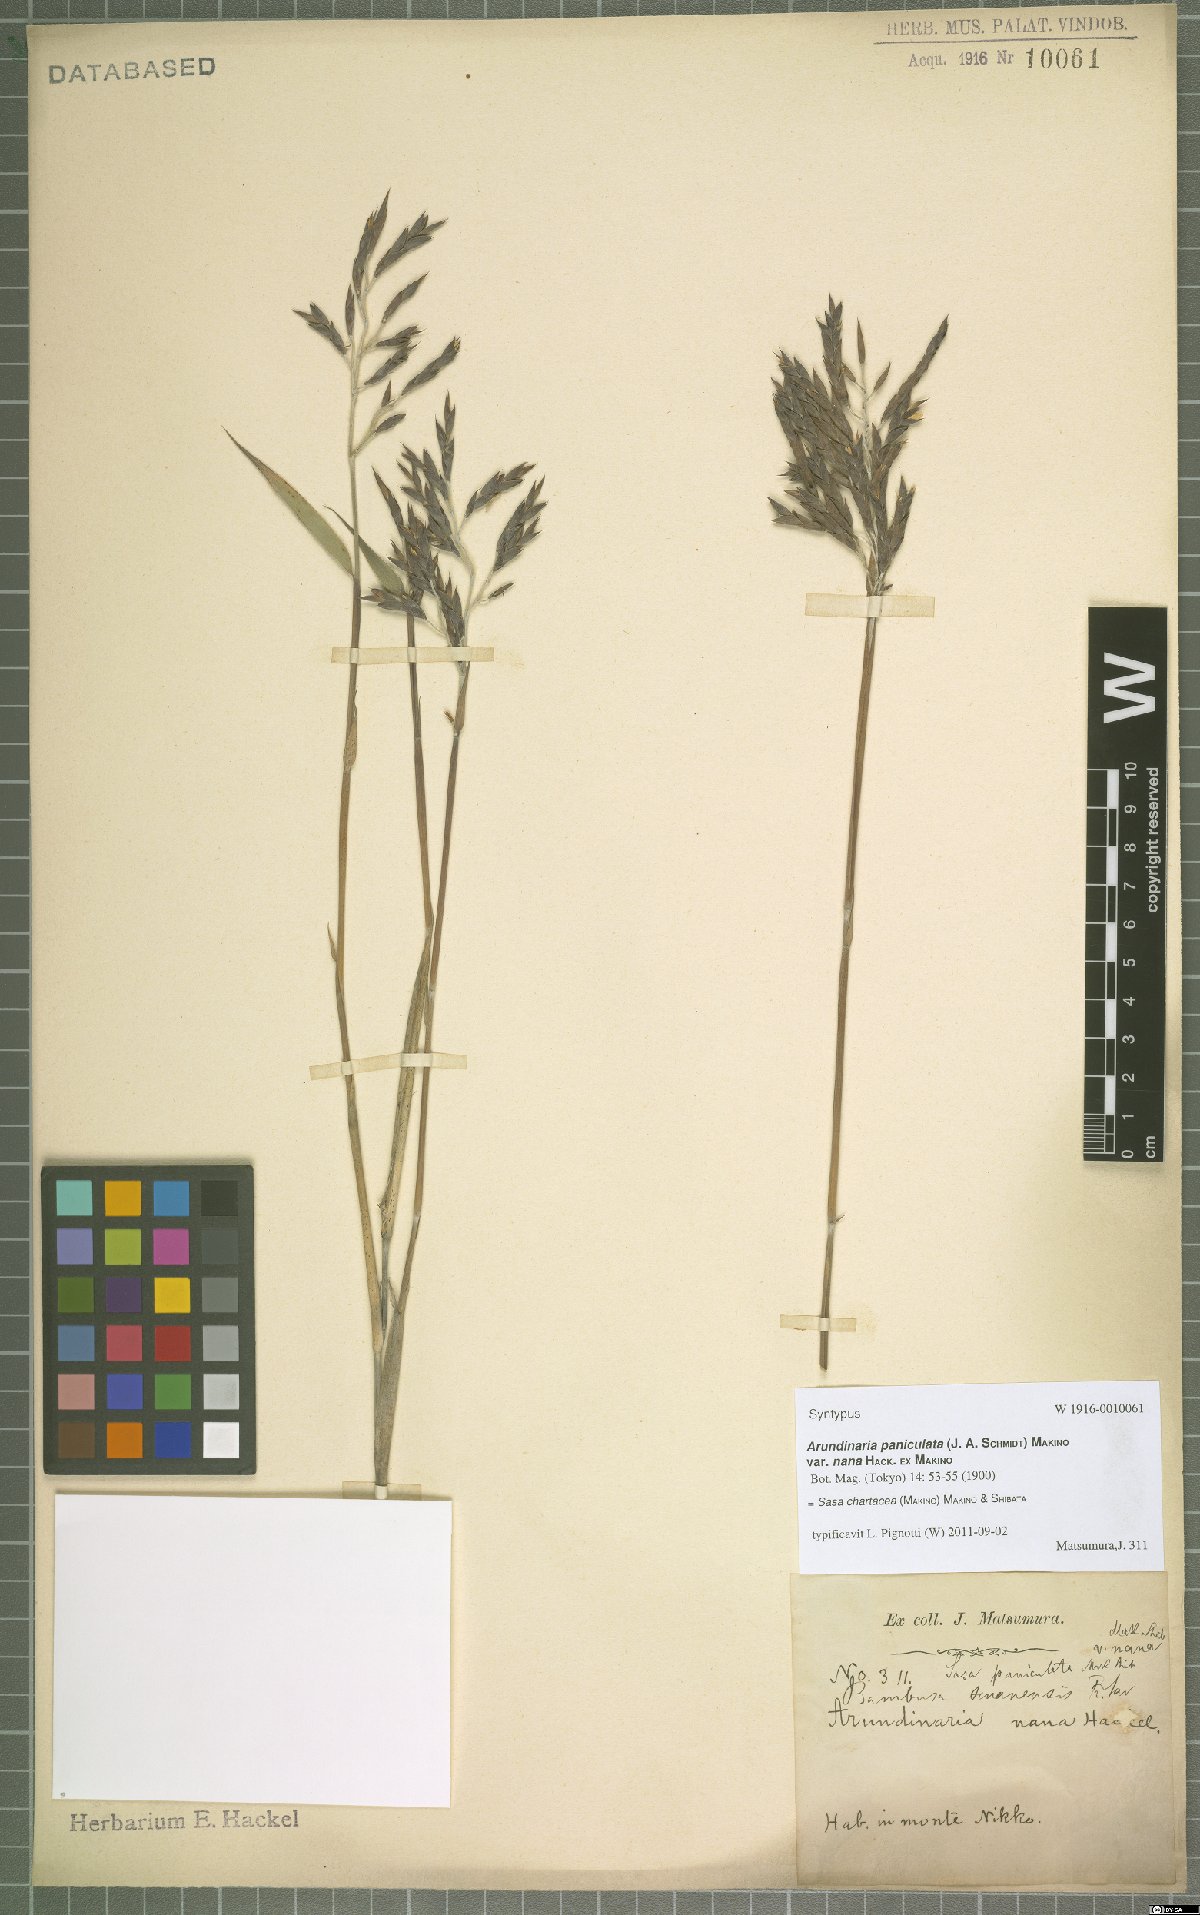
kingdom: Plantae
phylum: Tracheophyta
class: Liliopsida
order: Poales
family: Poaceae
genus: Sasa
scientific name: Sasa chartacea
